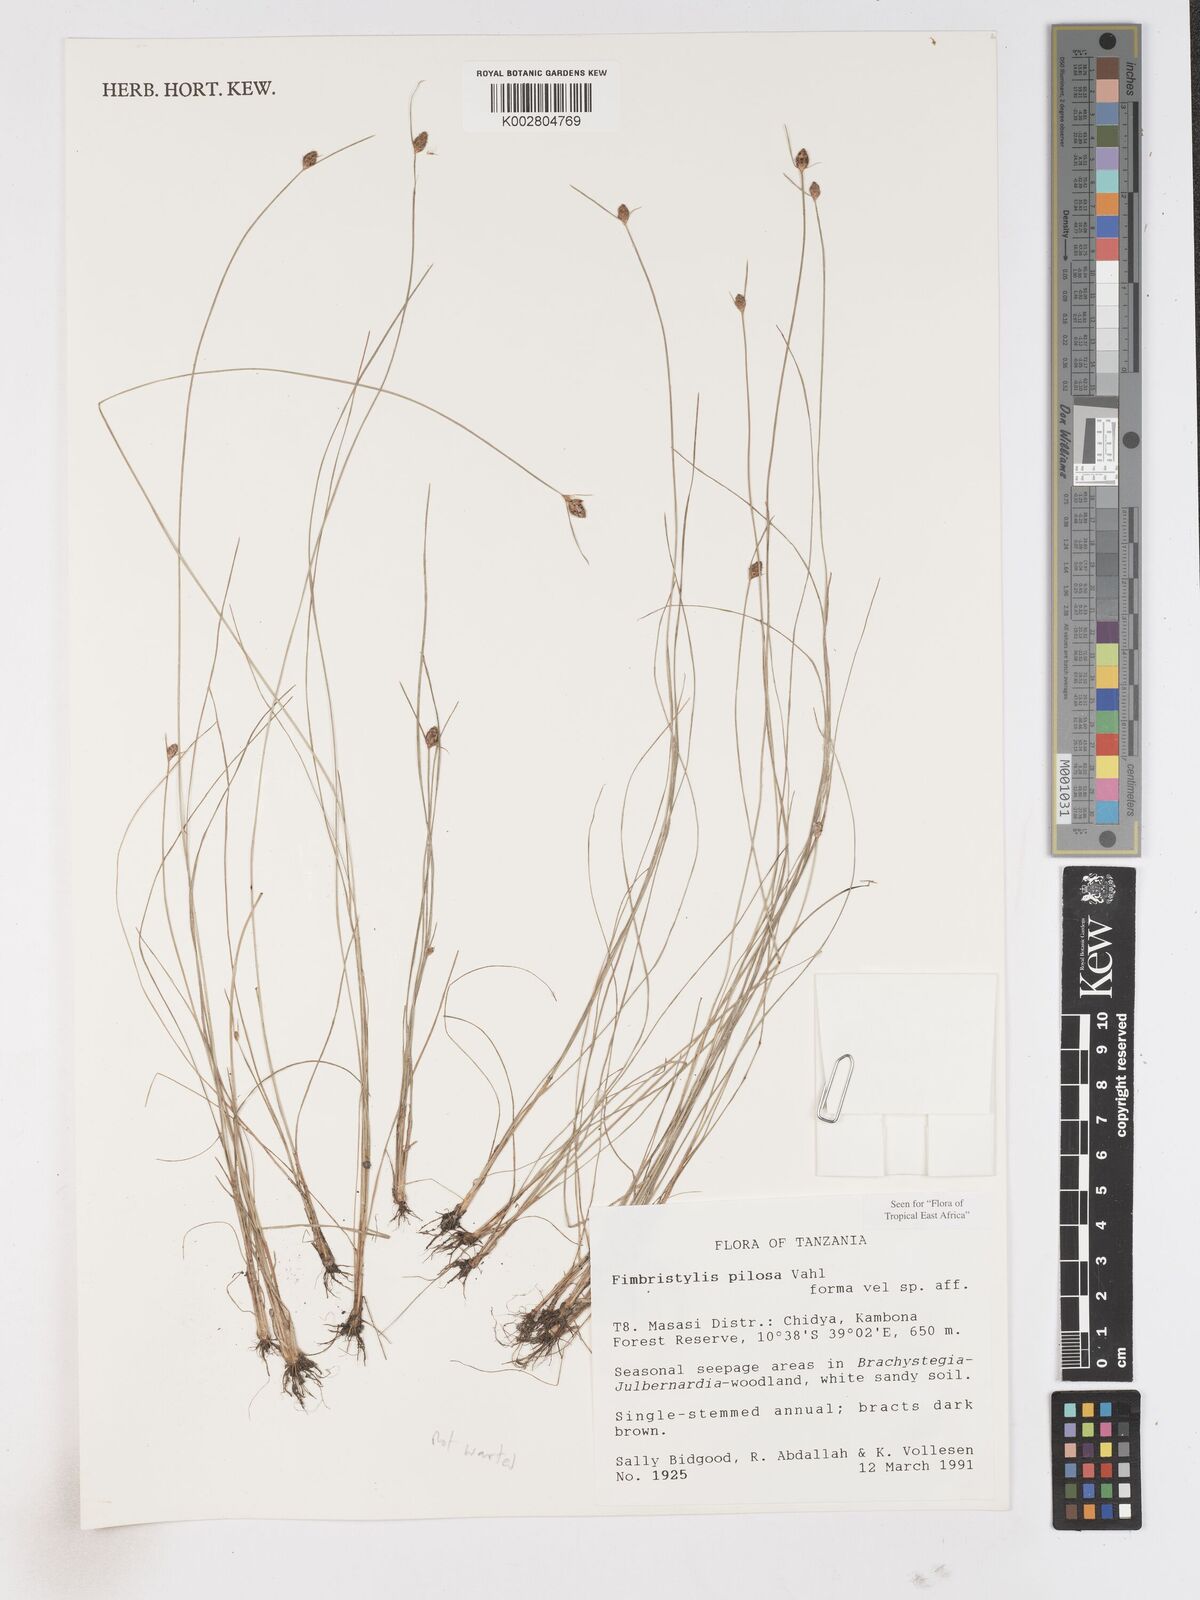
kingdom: Plantae
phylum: Tracheophyta
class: Liliopsida
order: Poales
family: Cyperaceae
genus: Fimbristylis
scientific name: Fimbristylis pilosa
